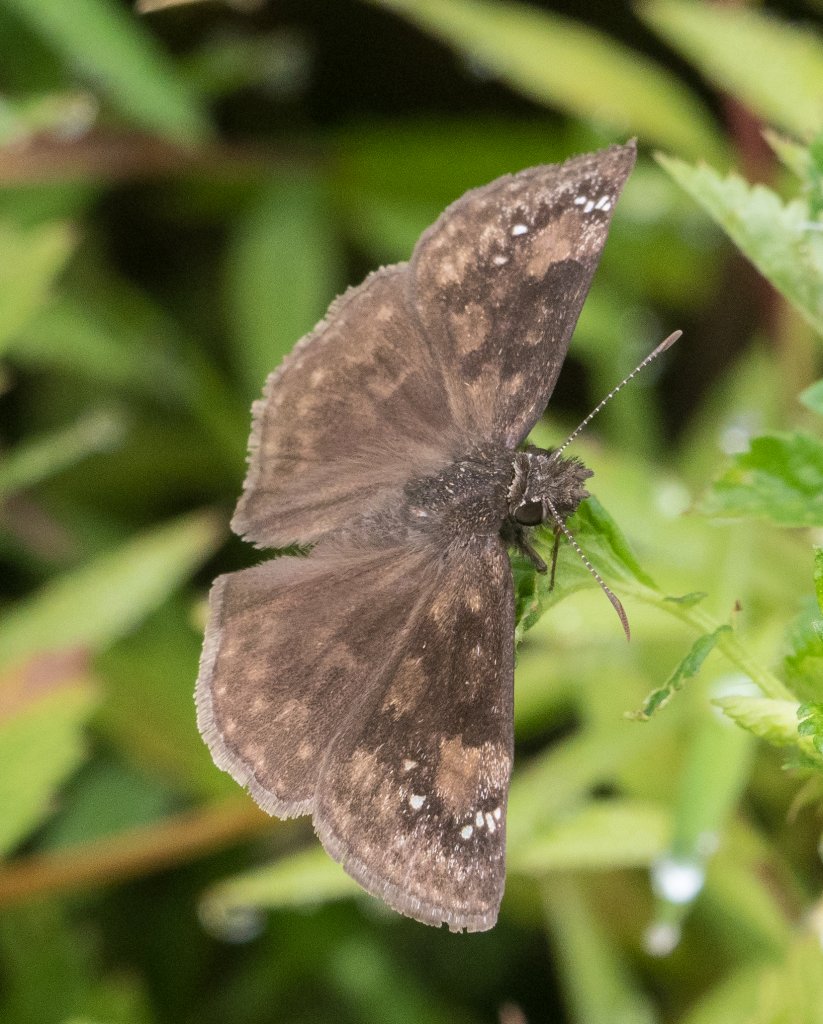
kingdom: Animalia
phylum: Arthropoda
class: Insecta
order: Lepidoptera
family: Hesperiidae
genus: Gesta
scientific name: Gesta
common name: Wild Indigo Duskywing
